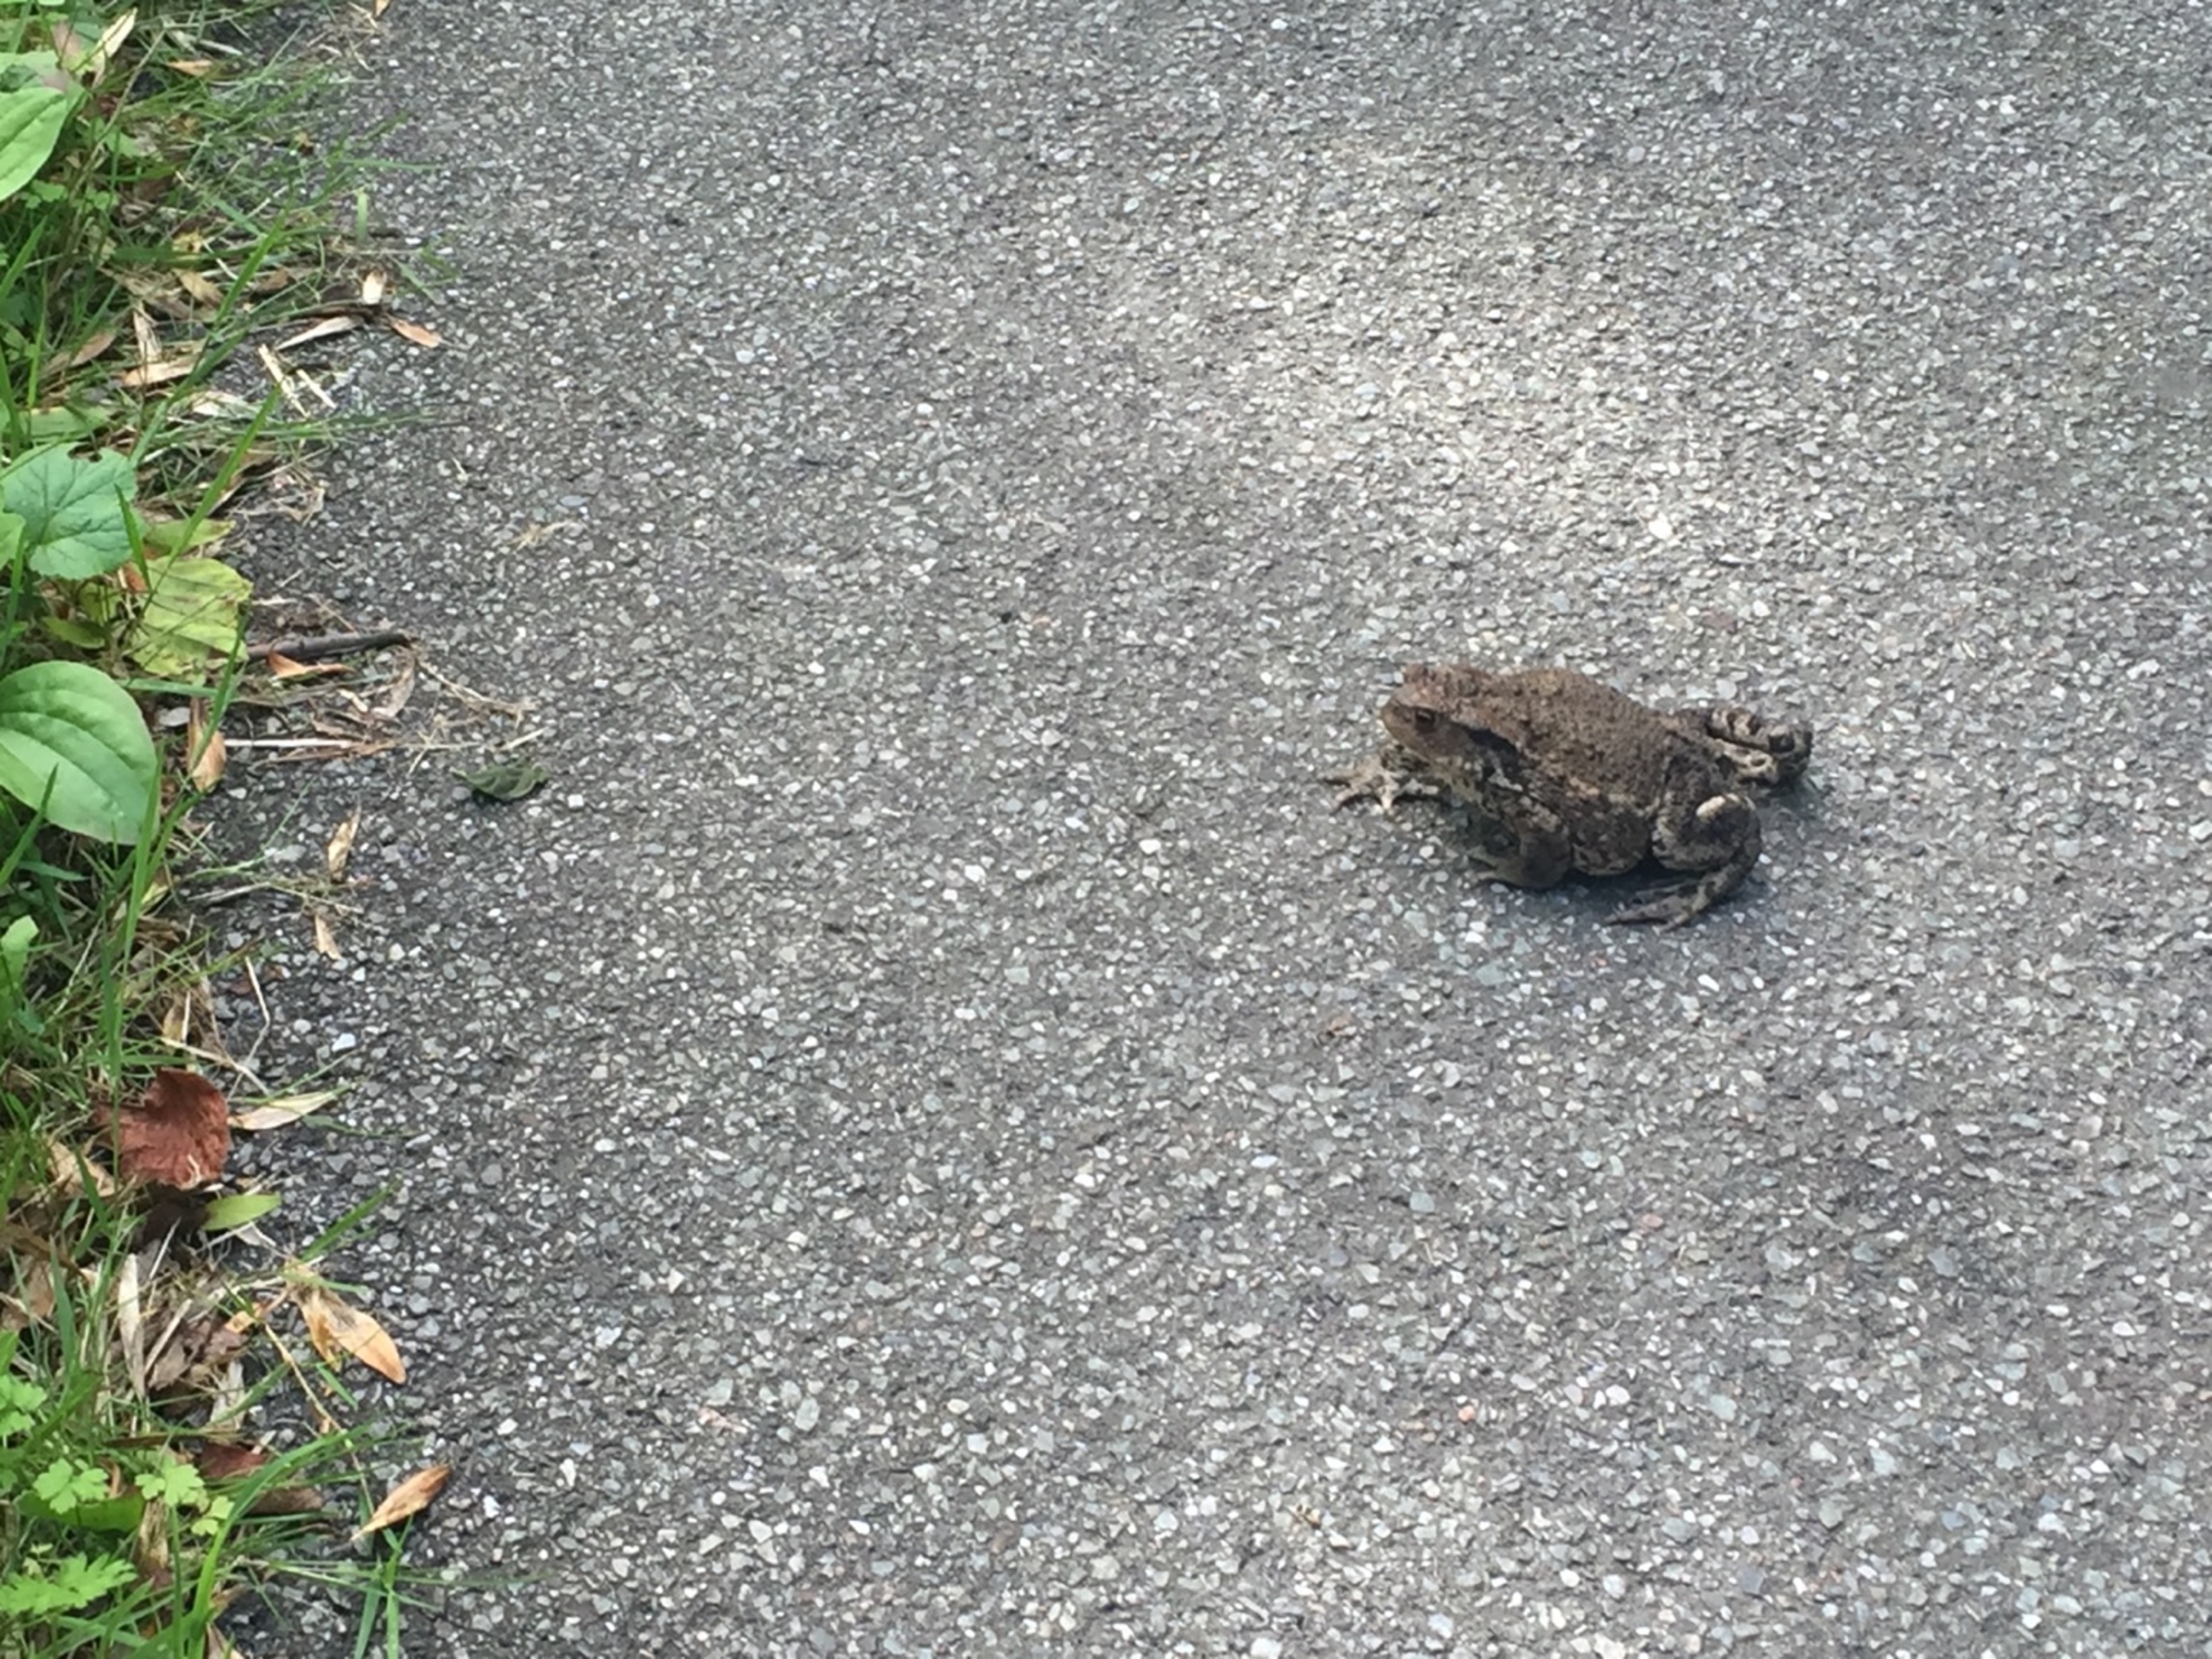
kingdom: Animalia
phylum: Chordata
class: Amphibia
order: Anura
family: Bufonidae
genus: Bufo
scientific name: Bufo bufo
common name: Skrubtudse
